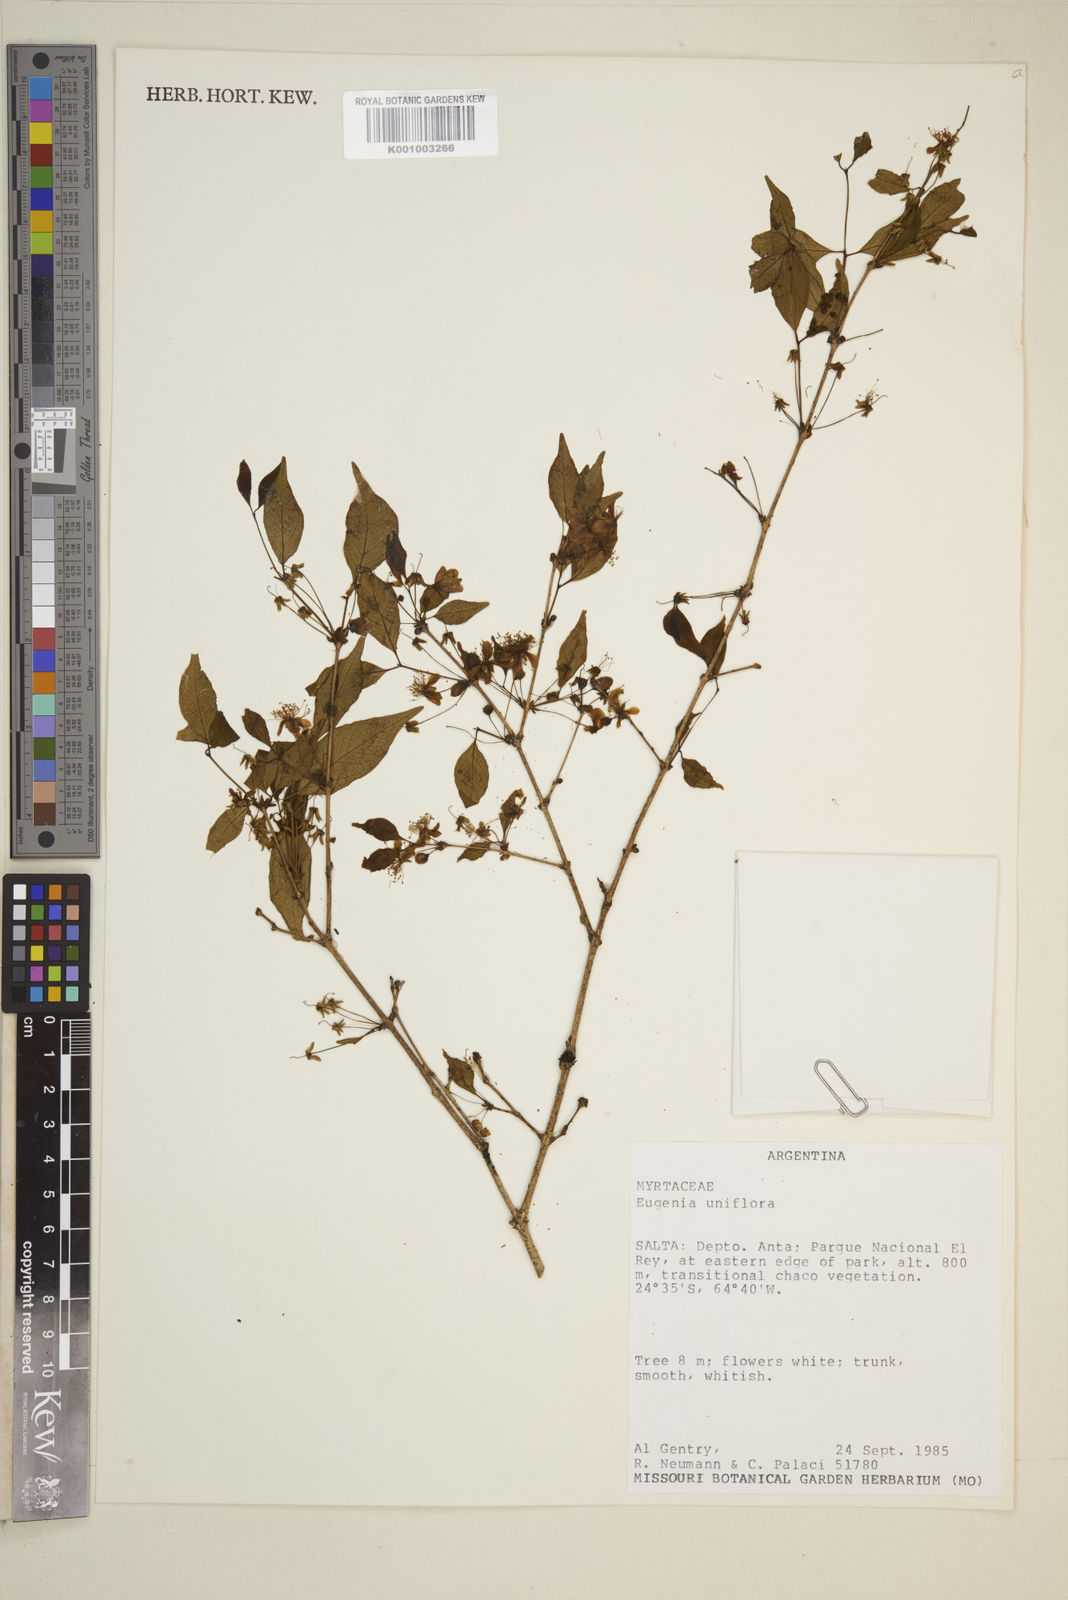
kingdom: Plantae
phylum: Tracheophyta
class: Magnoliopsida
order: Myrtales
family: Myrtaceae
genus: Eugenia
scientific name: Eugenia uniflora
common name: Surinam cherry
